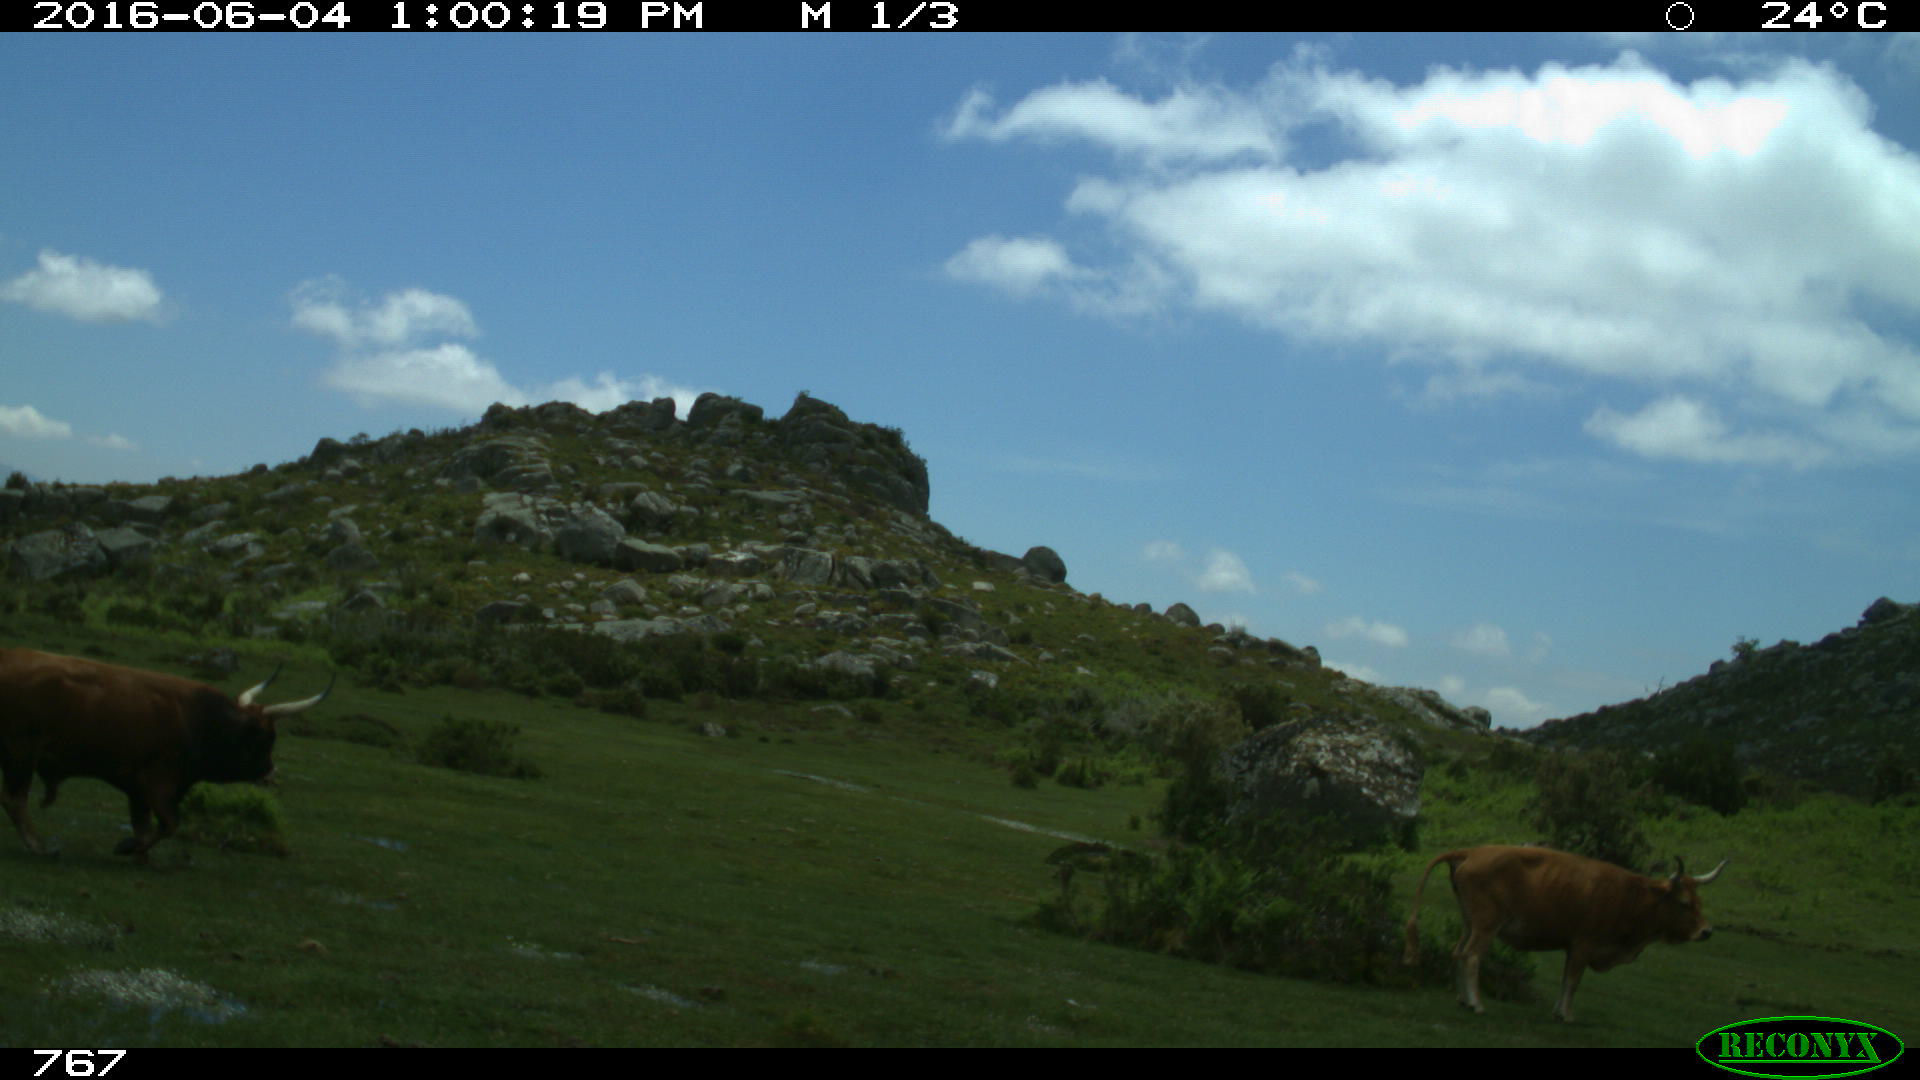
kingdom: Animalia
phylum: Chordata
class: Mammalia
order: Artiodactyla
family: Bovidae
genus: Bos
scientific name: Bos taurus
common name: Domesticated cattle
